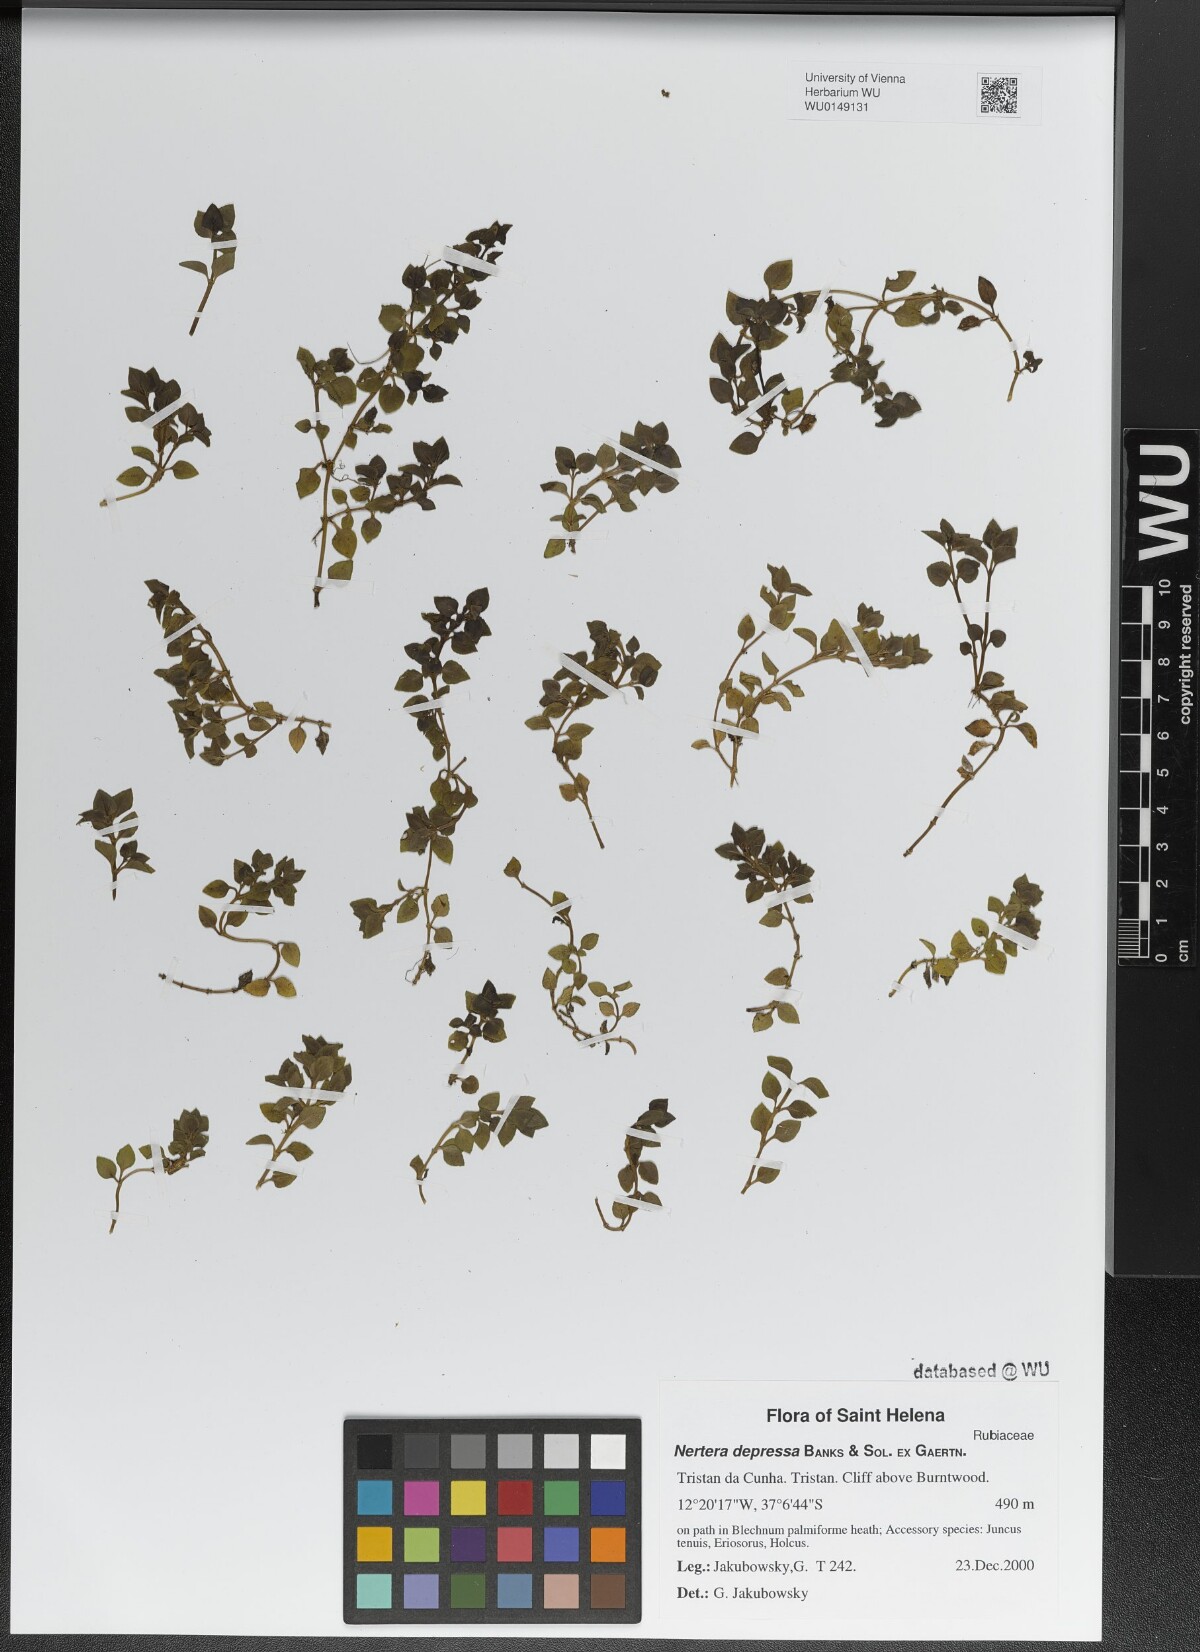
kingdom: Plantae
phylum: Tracheophyta
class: Magnoliopsida
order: Gentianales
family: Rubiaceae
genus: Nertera
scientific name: Nertera granadensis
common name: Beadplant
